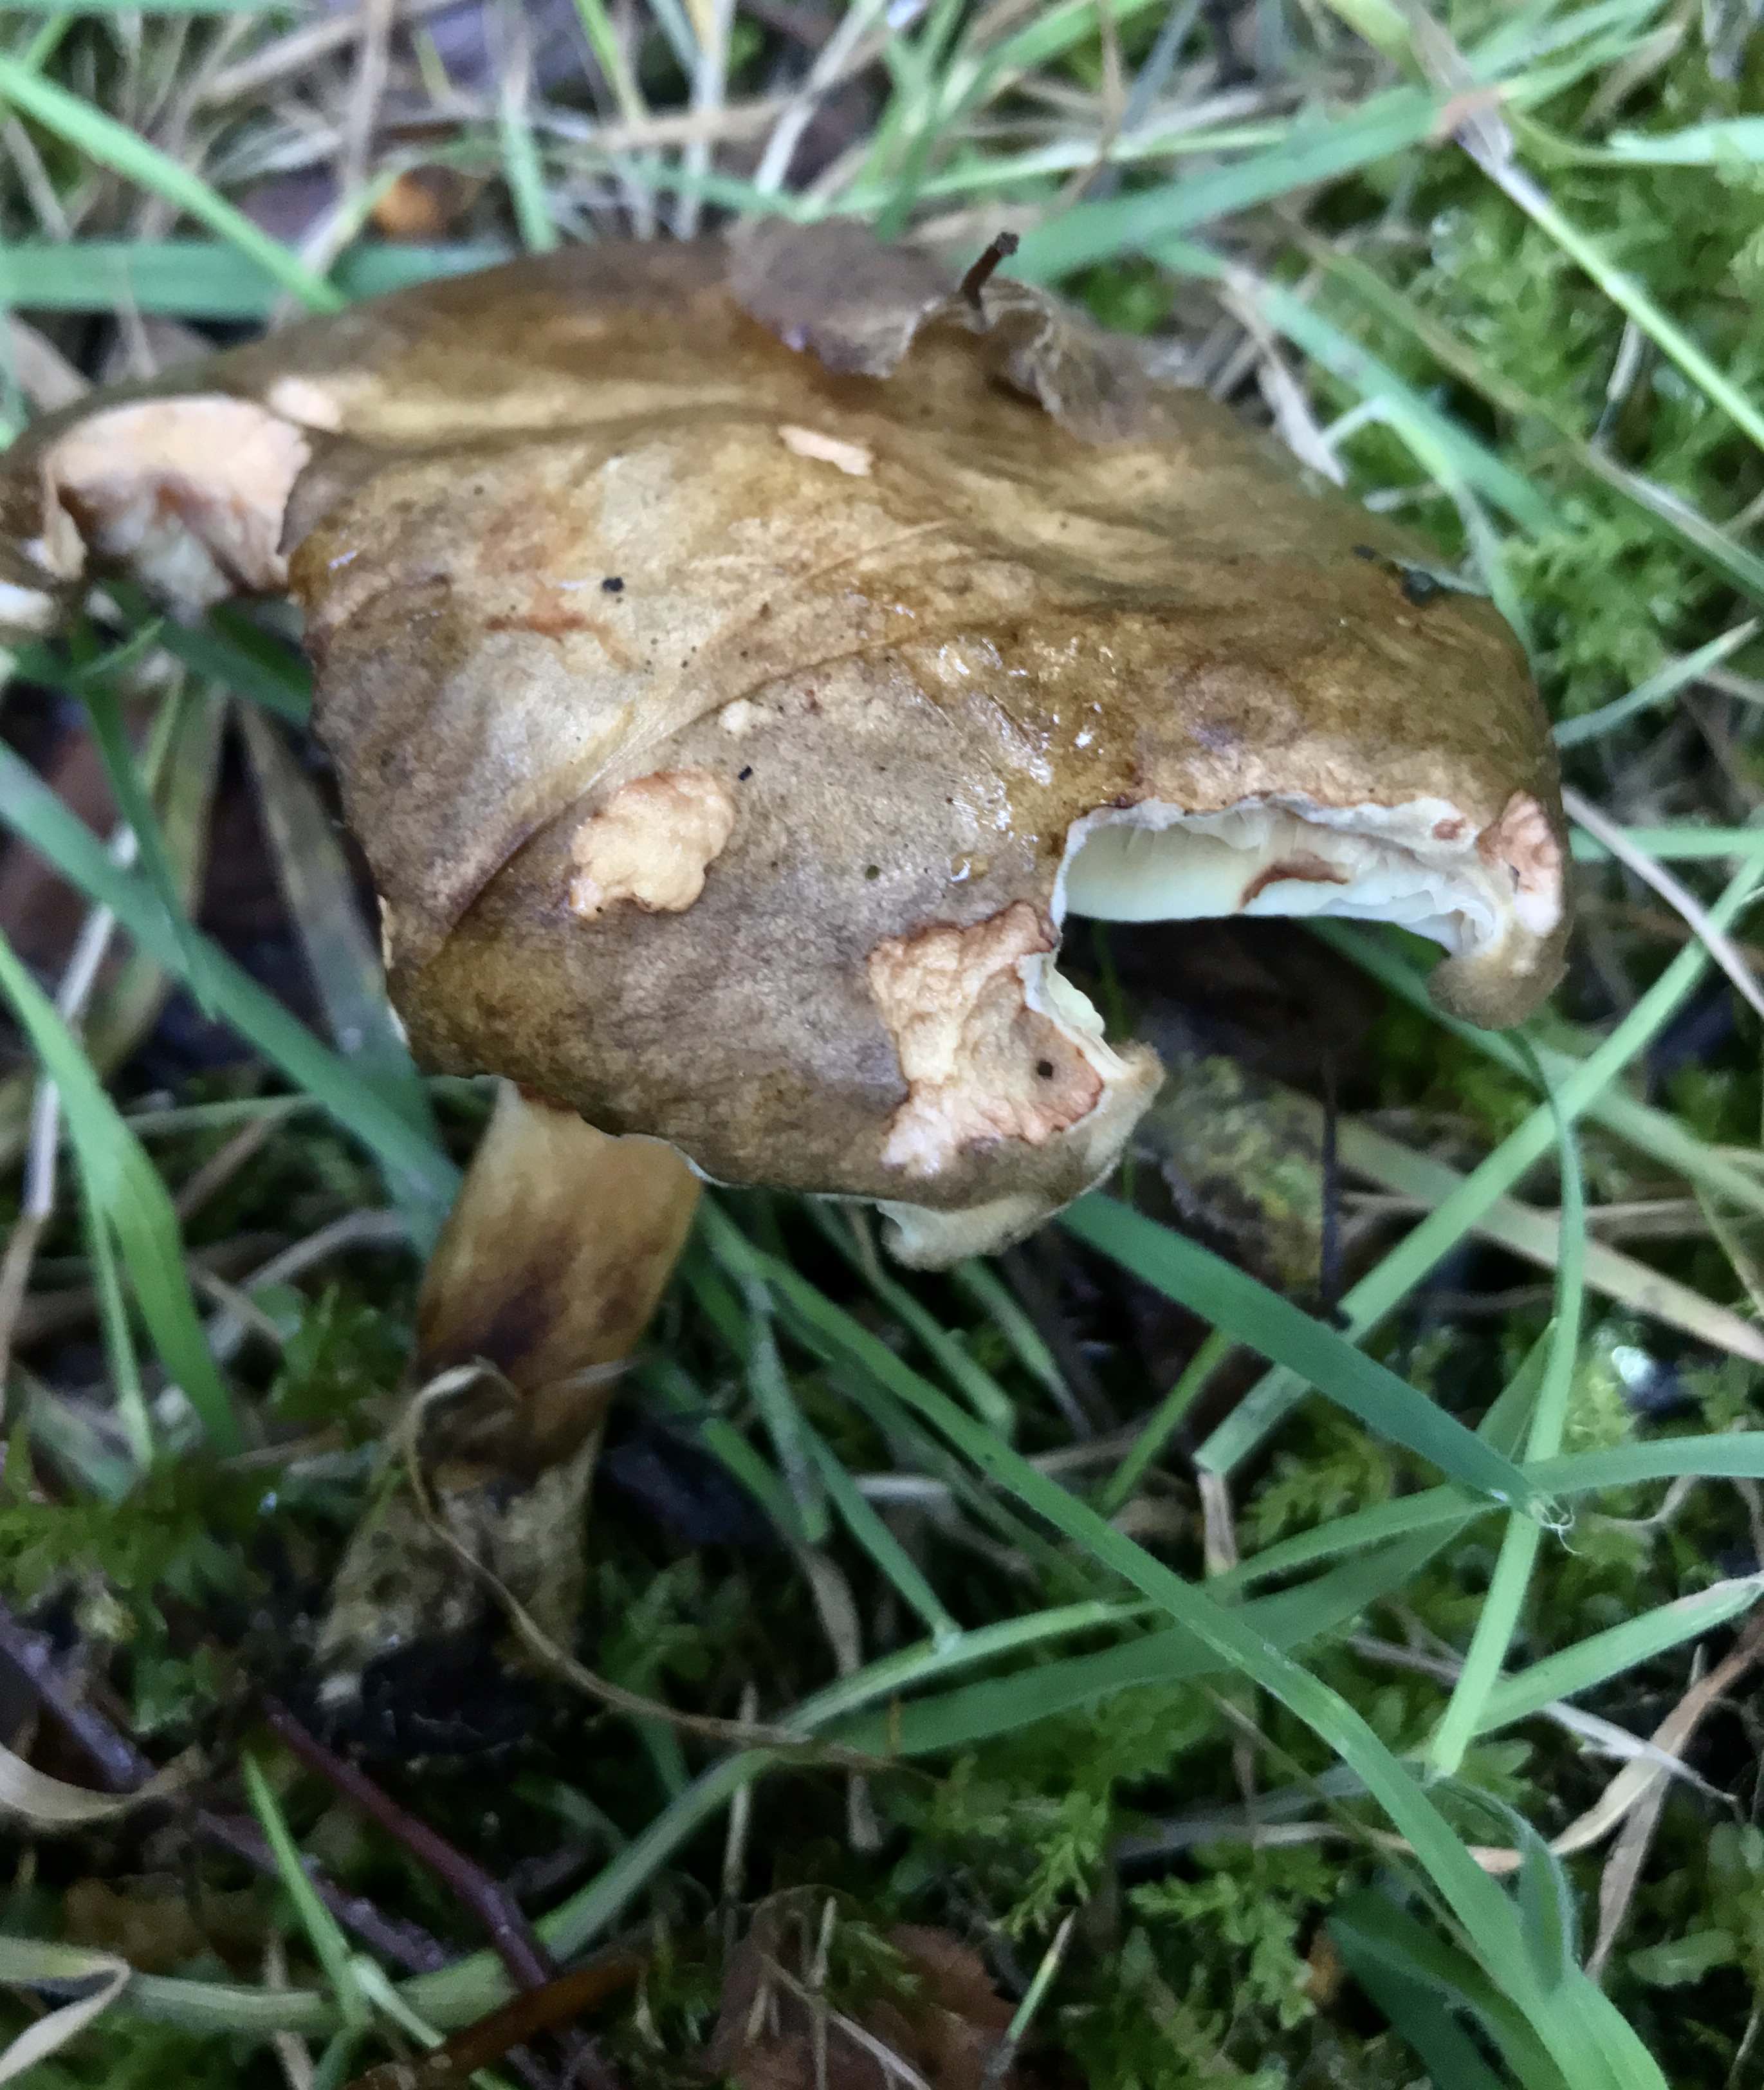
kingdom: Fungi
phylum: Basidiomycota
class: Agaricomycetes
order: Boletales
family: Paxillaceae
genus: Paxillus
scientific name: Paxillus involutus
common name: almindelig netbladhat
